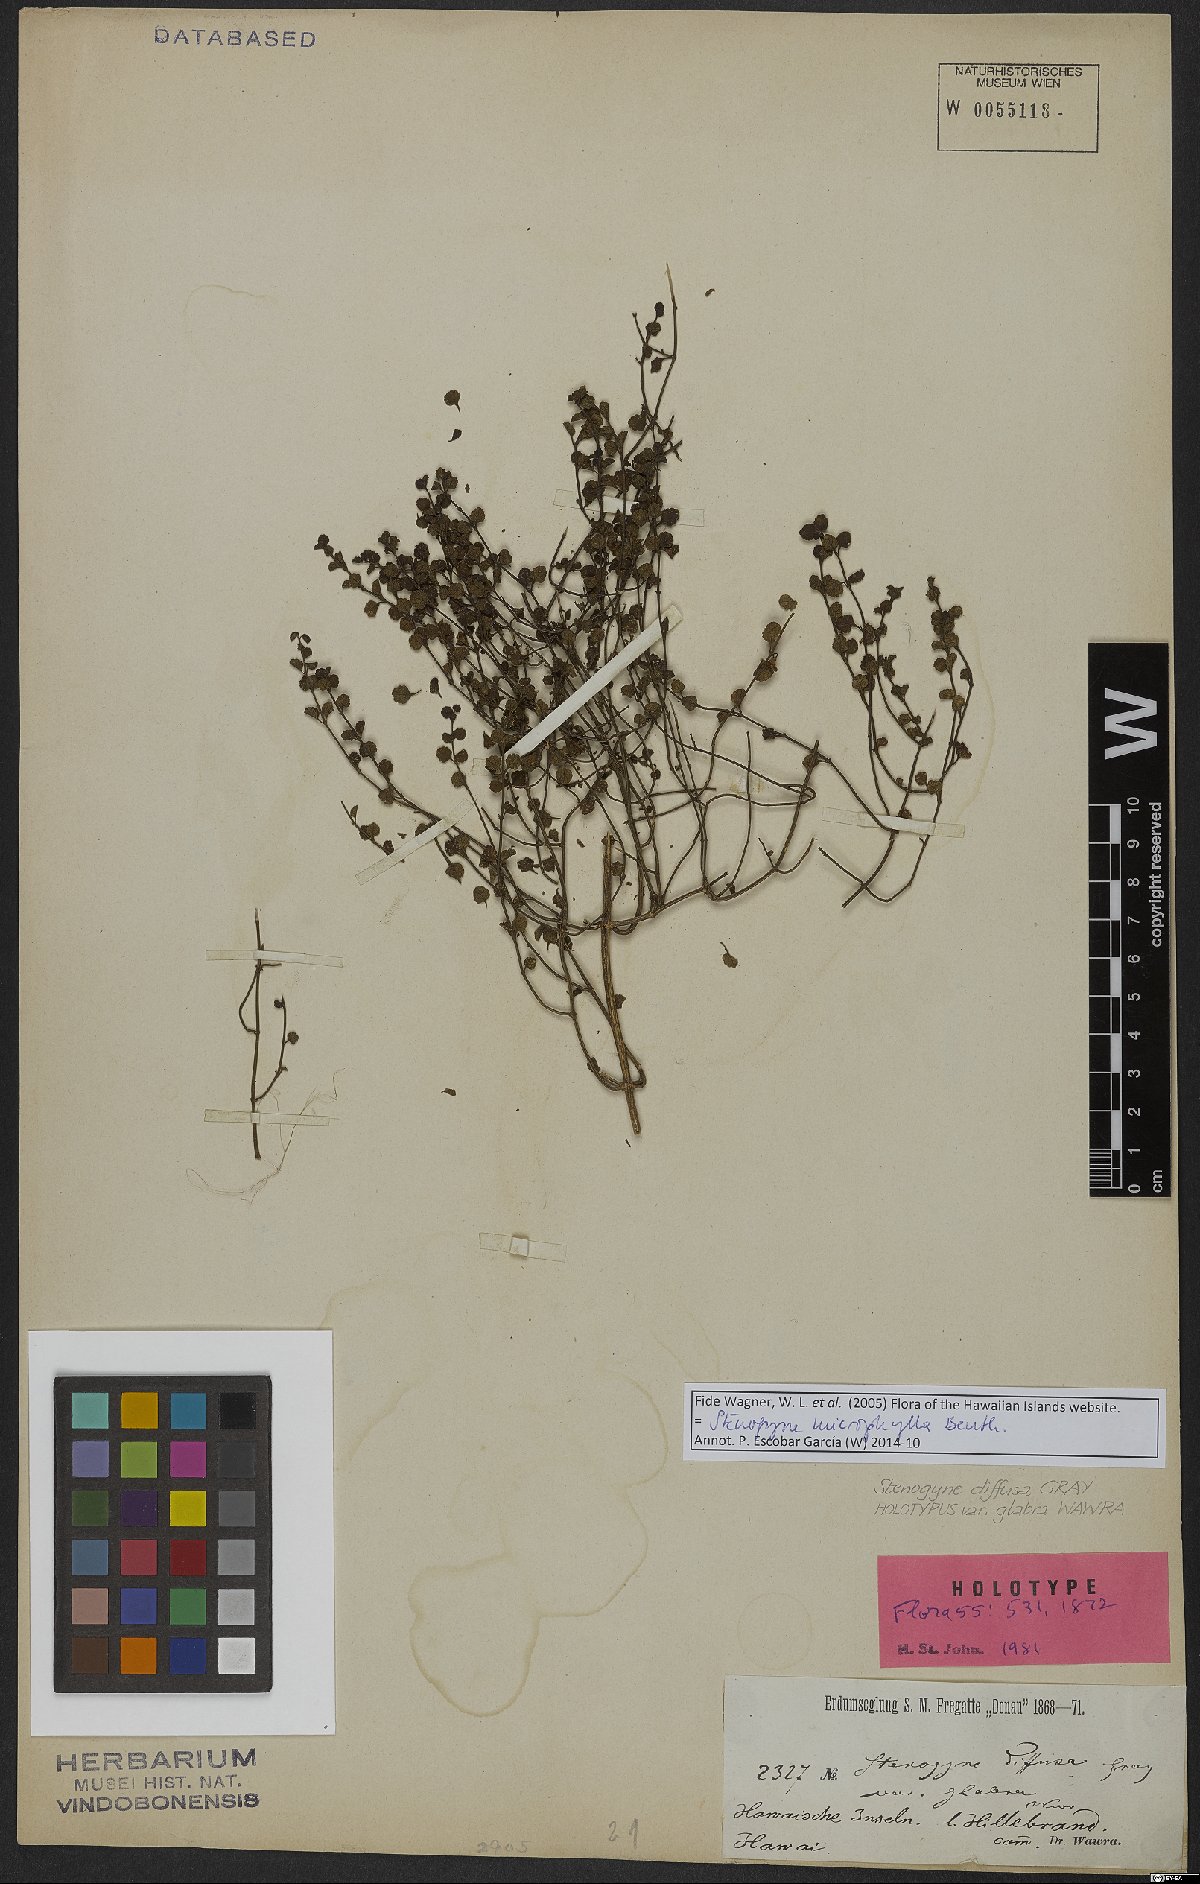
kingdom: Plantae
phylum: Tracheophyta
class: Magnoliopsida
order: Lamiales
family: Lamiaceae
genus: Stenogyne
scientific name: Stenogyne microphylla
